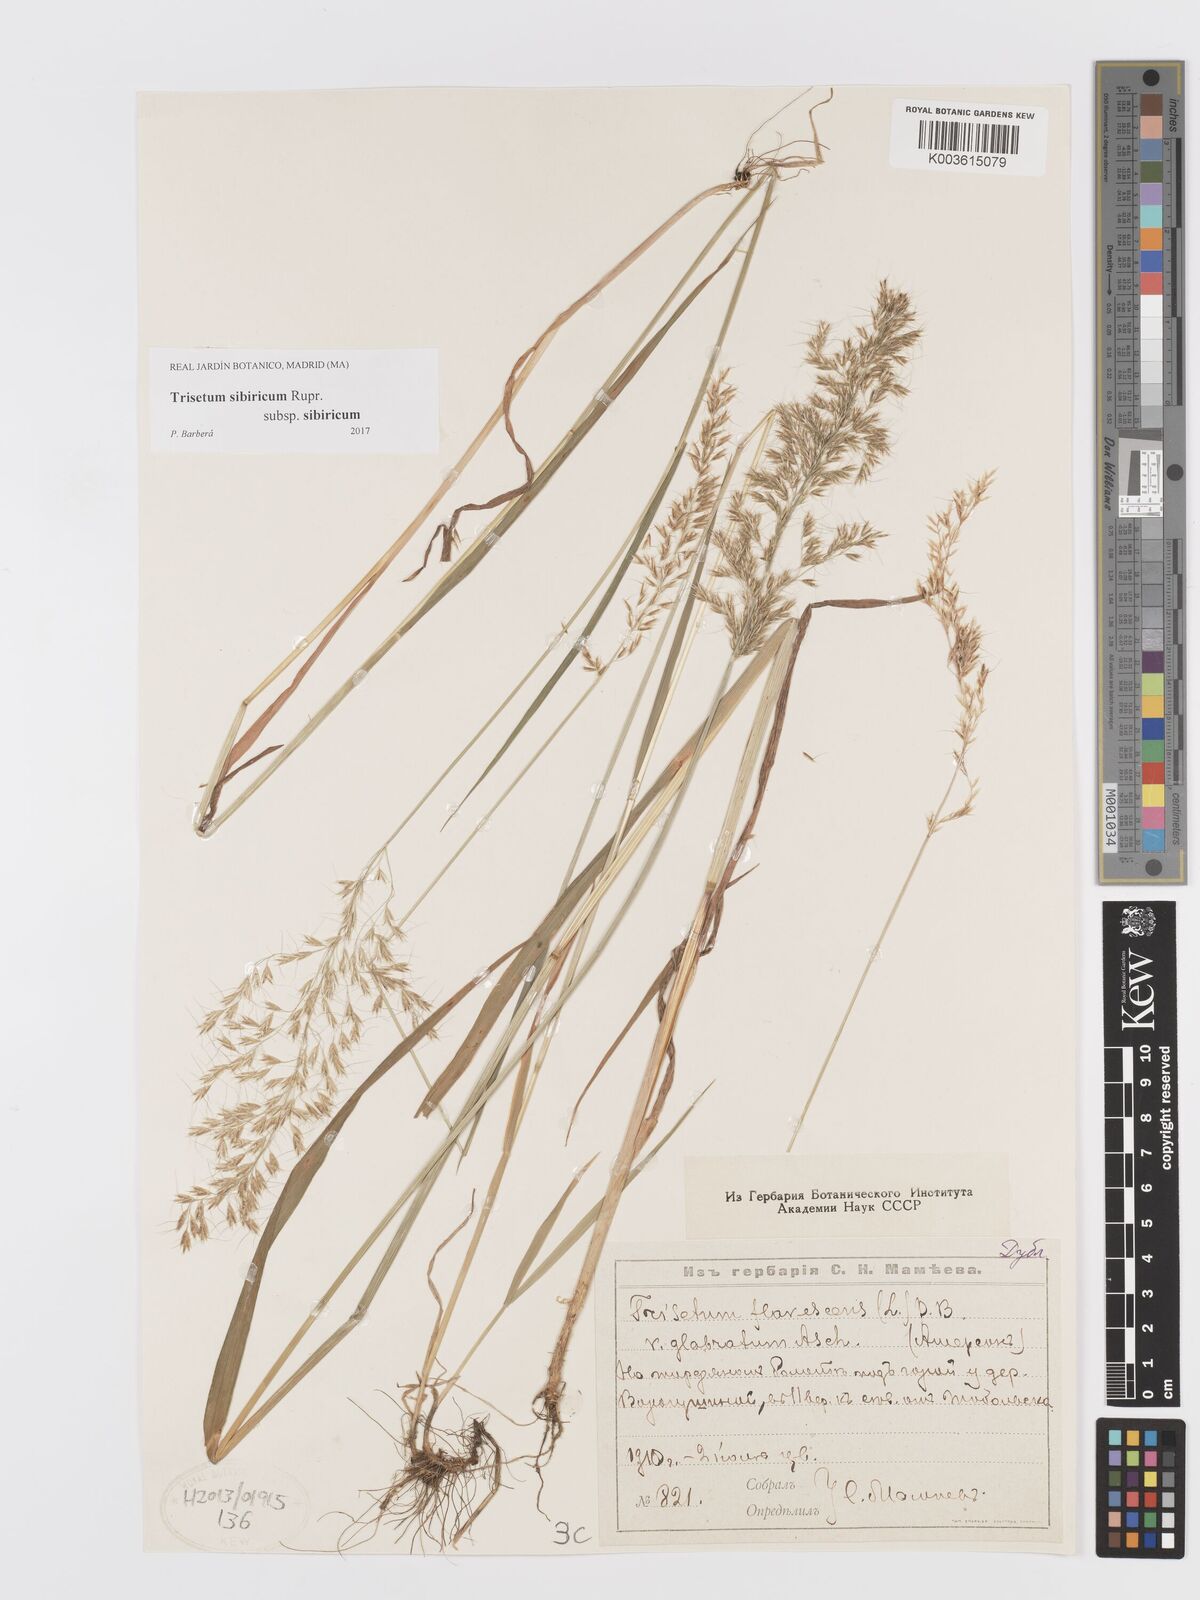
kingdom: Plantae
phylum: Tracheophyta
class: Liliopsida
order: Poales
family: Poaceae
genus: Sibirotrisetum
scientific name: Sibirotrisetum sibiricum
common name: Siberian false oat
